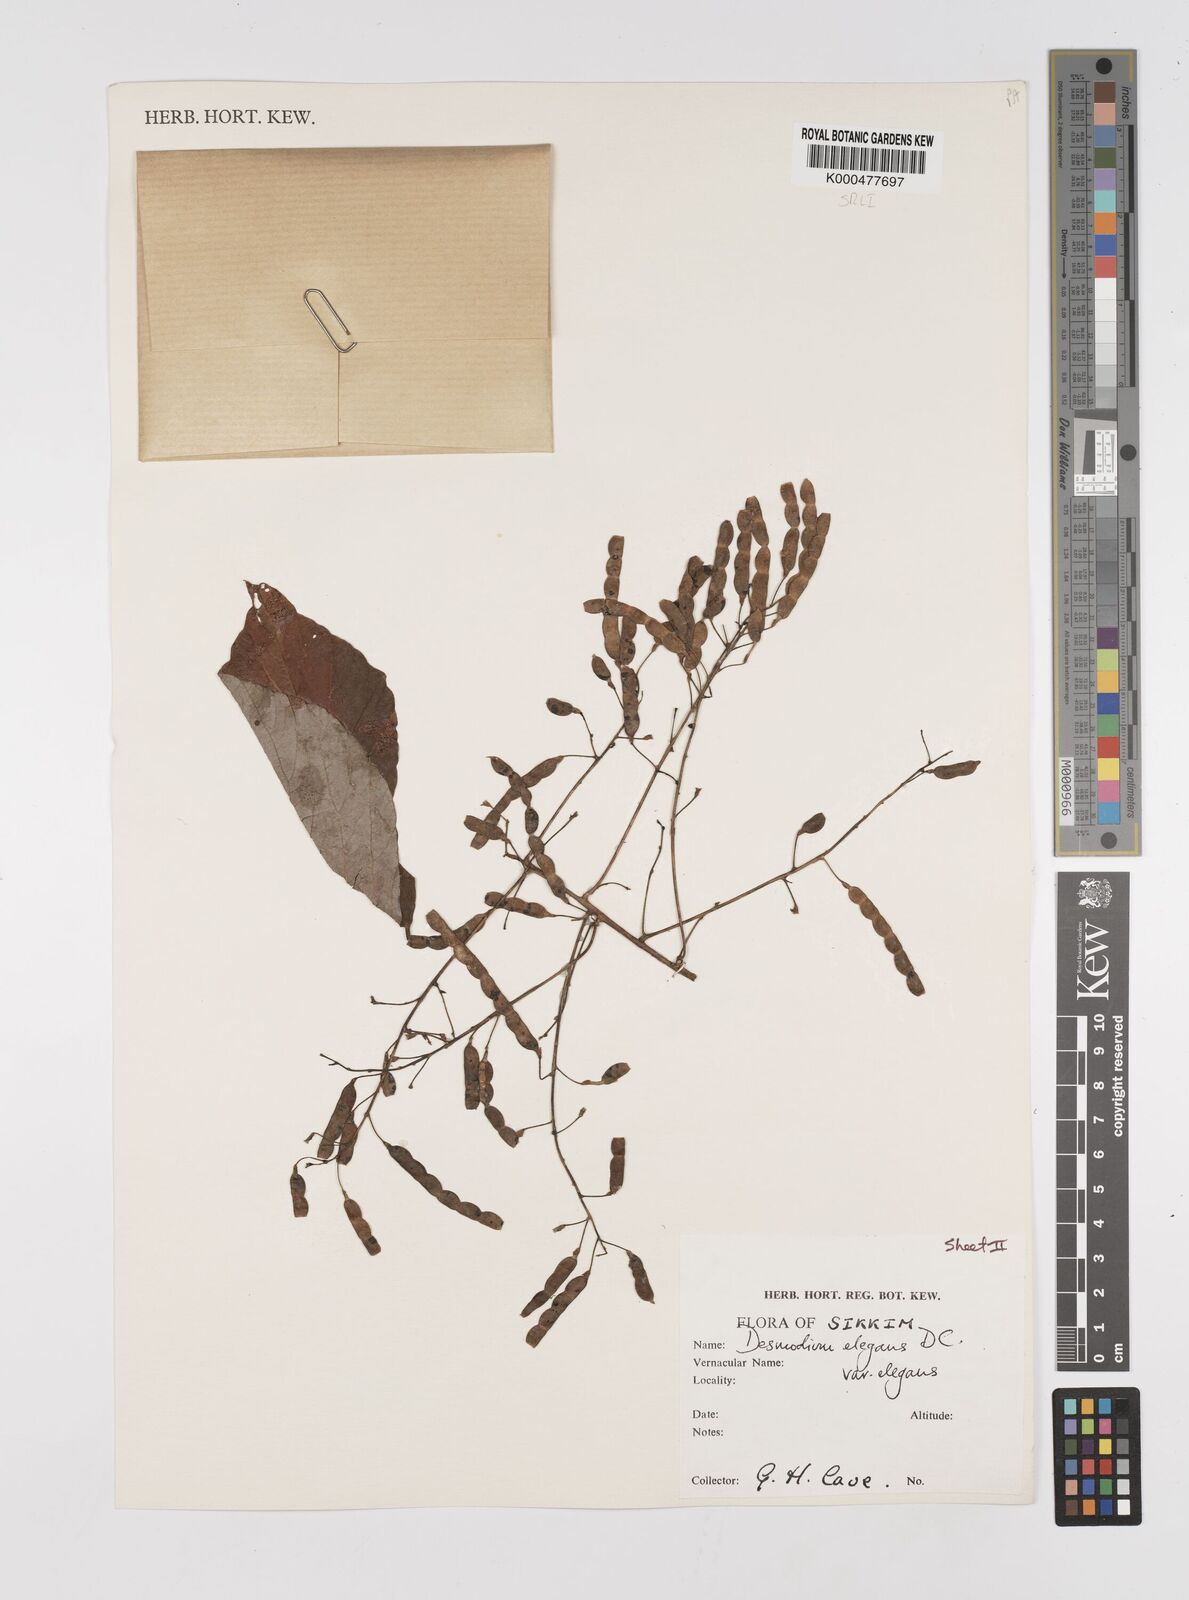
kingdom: Plantae
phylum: Tracheophyta
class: Magnoliopsida
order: Fabales
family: Fabaceae
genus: Sunhangia
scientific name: Sunhangia elegans
